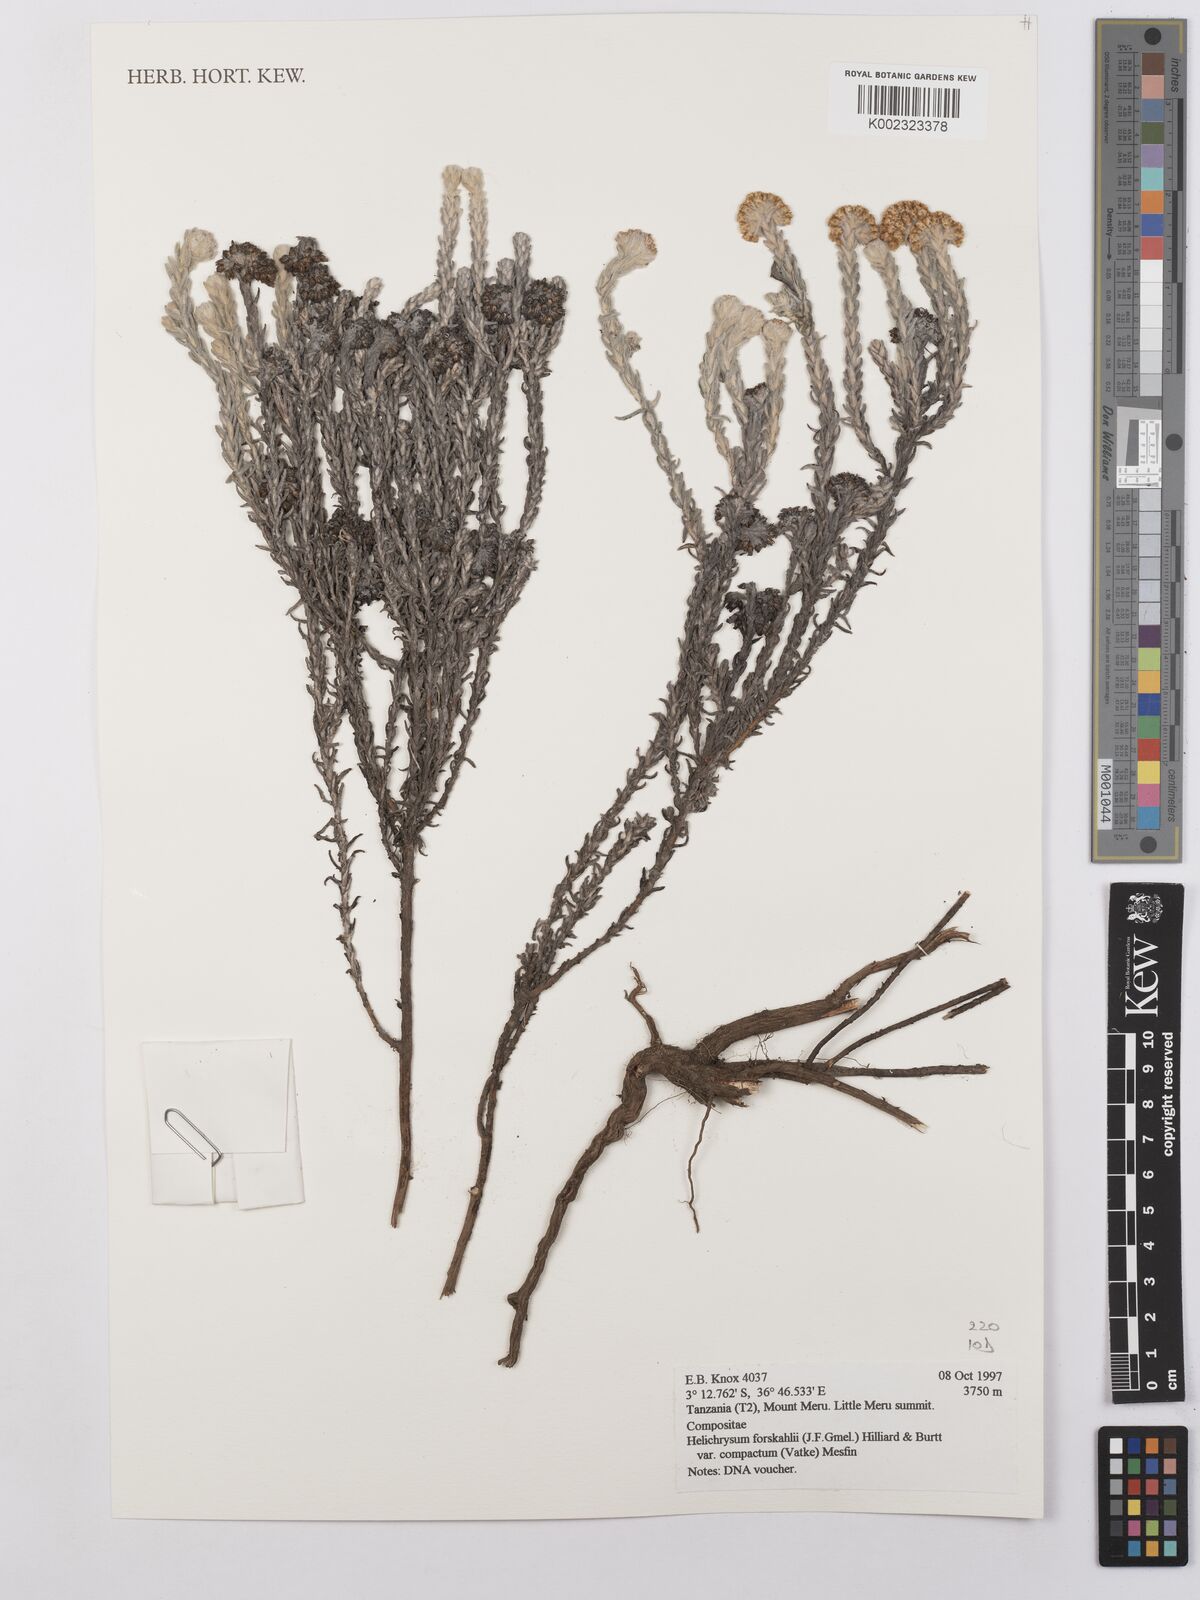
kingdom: Plantae
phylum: Tracheophyta
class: Magnoliopsida
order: Asterales
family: Asteraceae
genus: Helichrysum
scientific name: Helichrysum forskahlii
